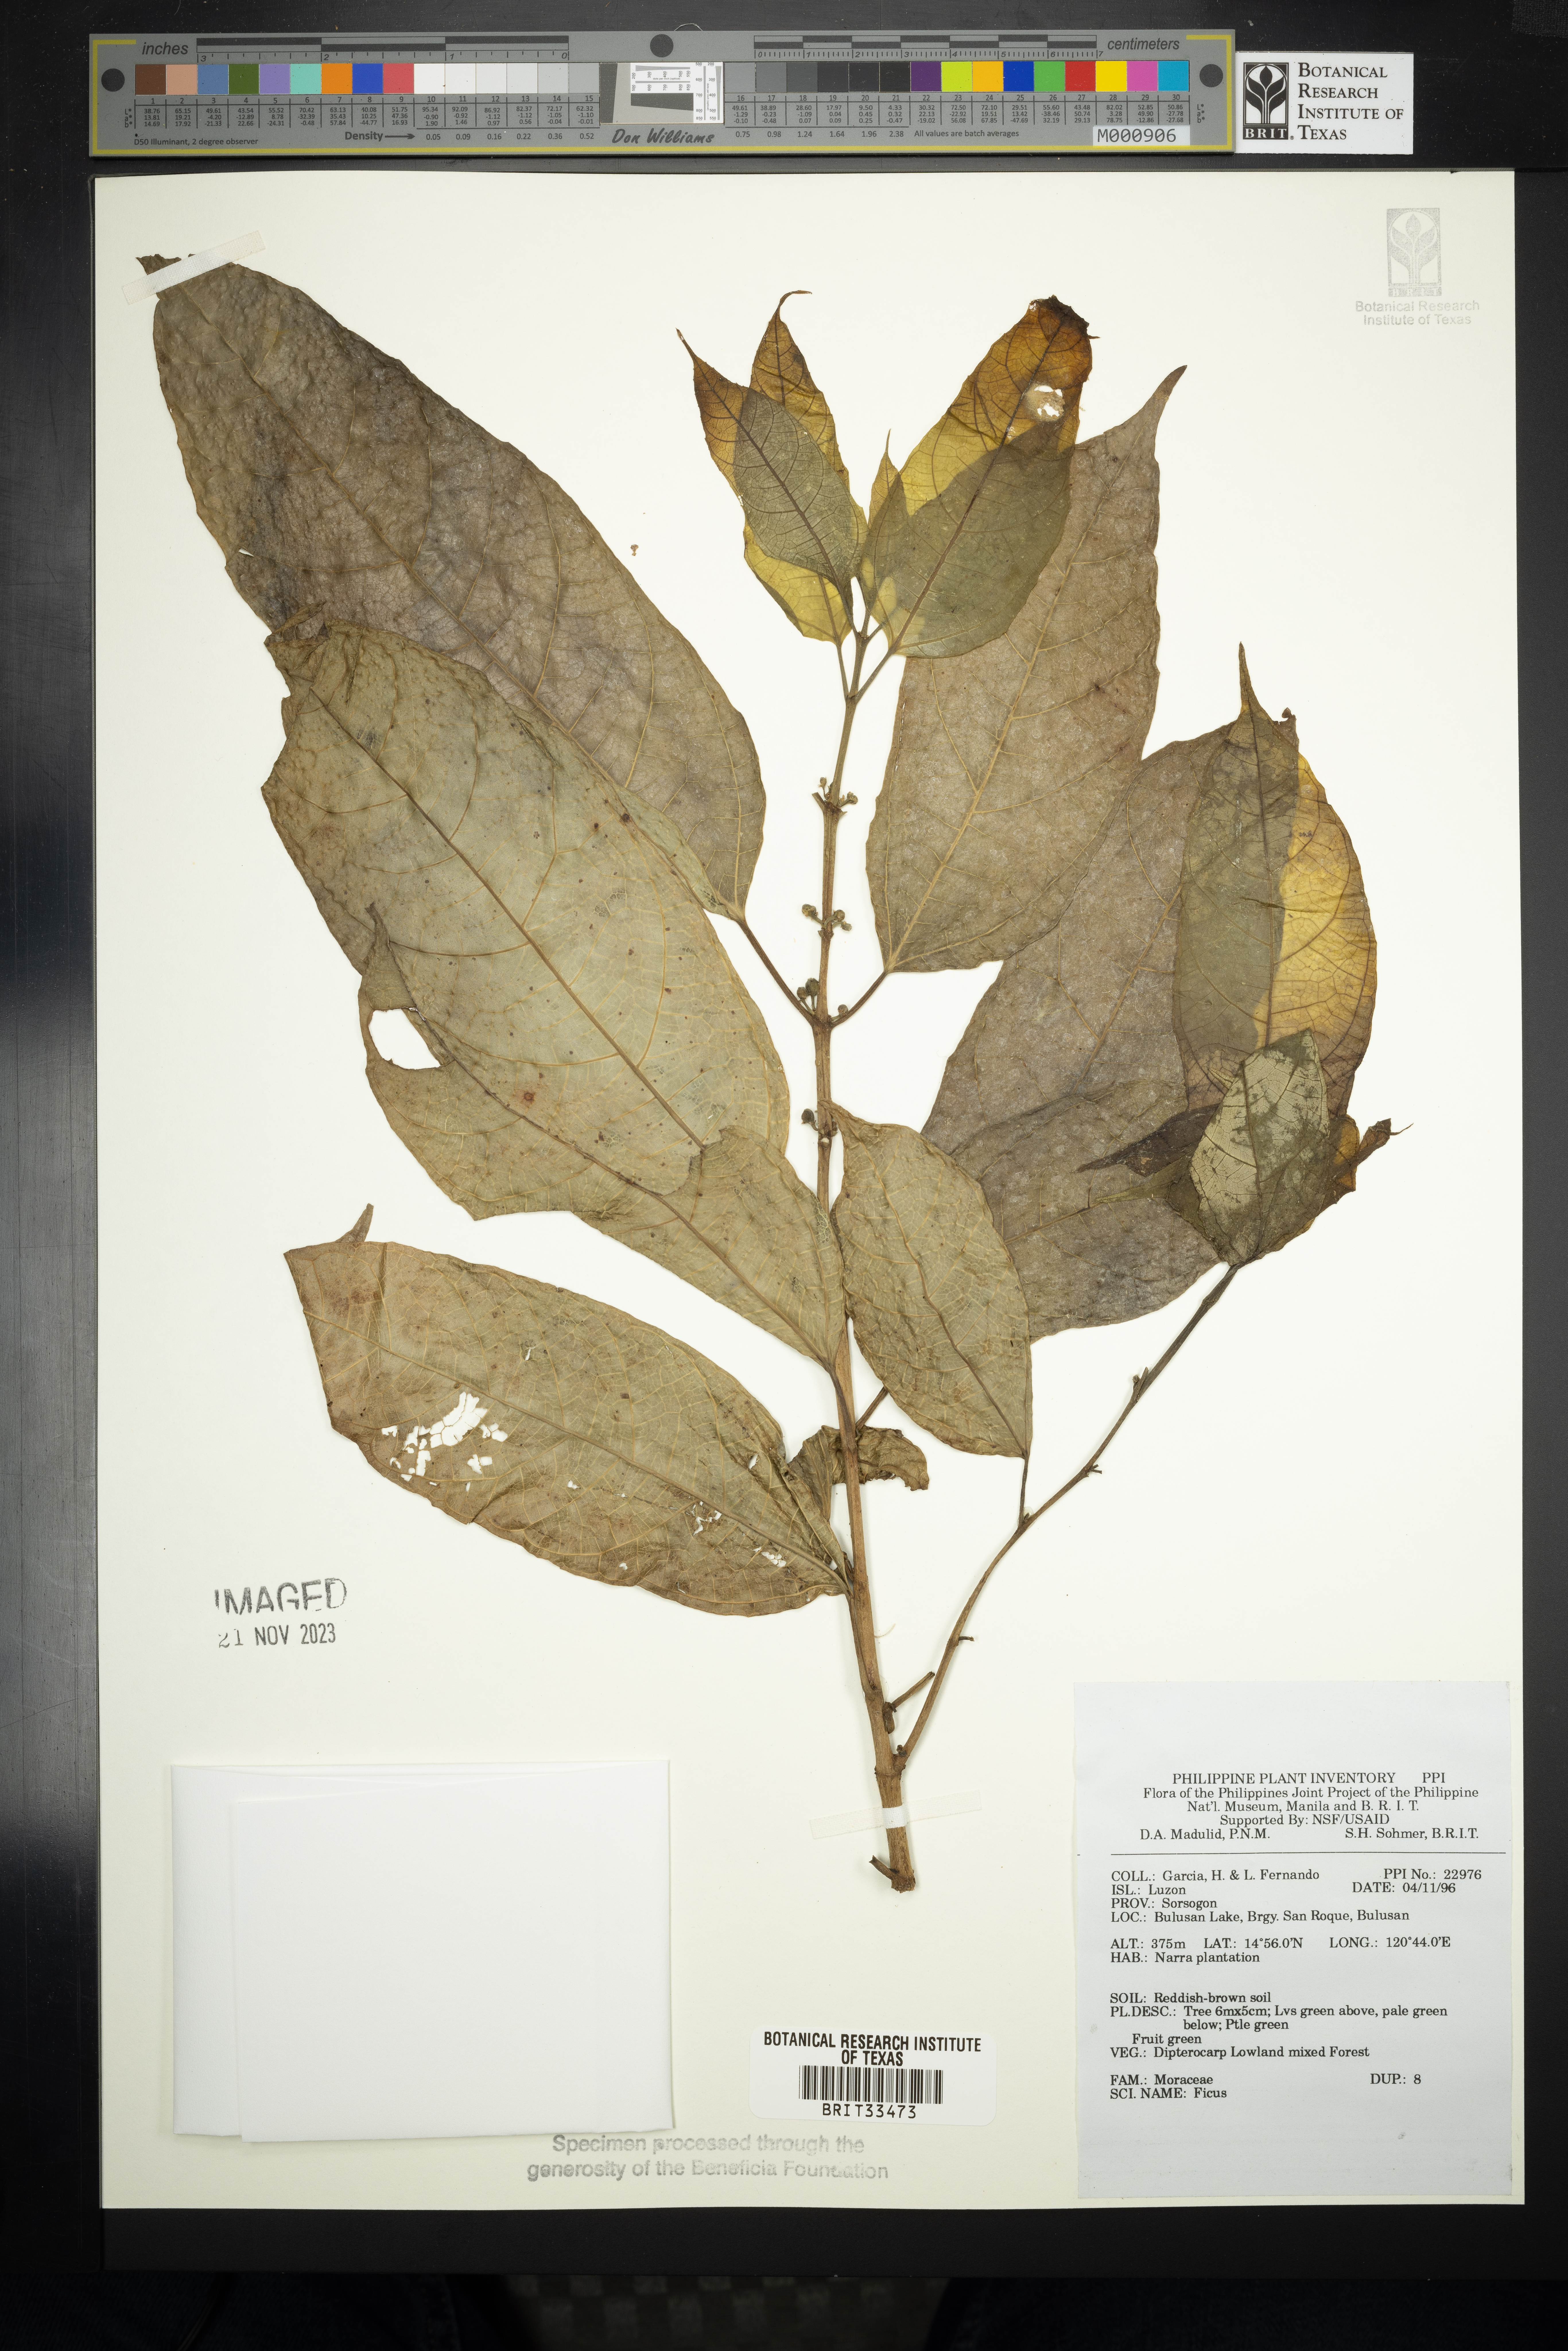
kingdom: Plantae
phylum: Tracheophyta
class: Magnoliopsida
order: Rosales
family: Moraceae
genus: Ficus
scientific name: Ficus
